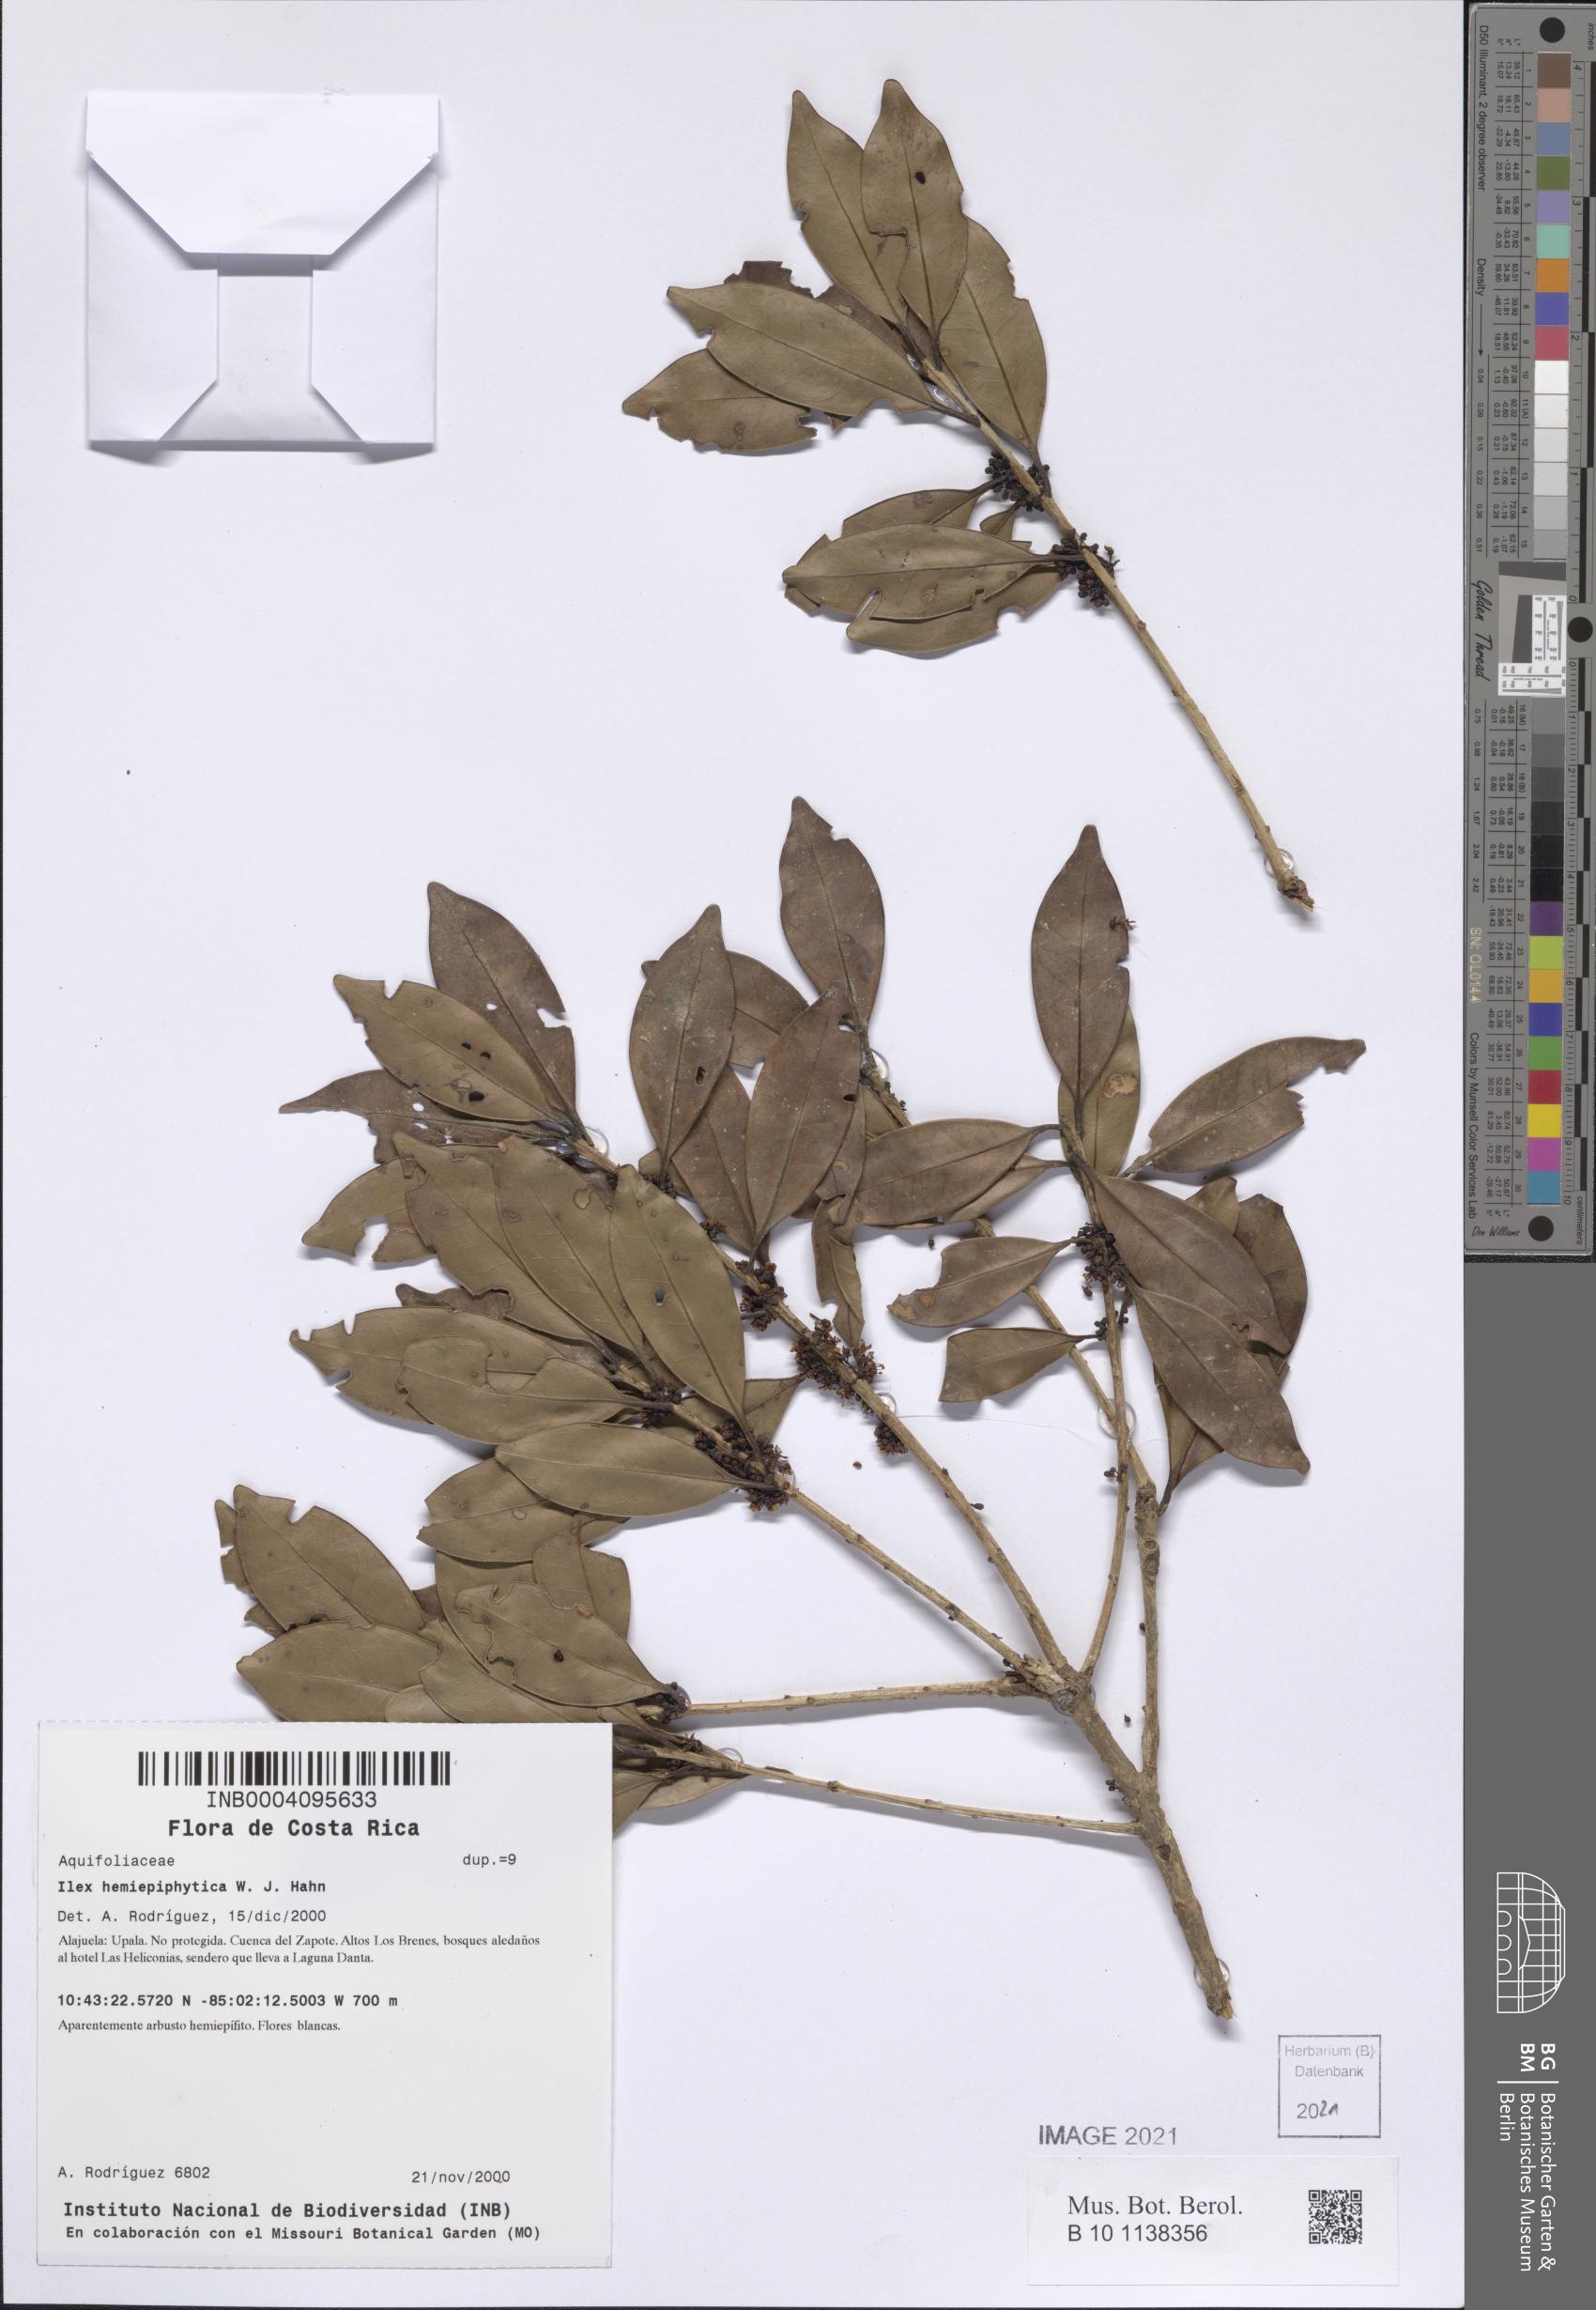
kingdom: Plantae
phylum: Tracheophyta
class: Magnoliopsida
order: Aquifoliales
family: Aquifoliaceae
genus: Ilex
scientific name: Ilex hemiepiphytica
